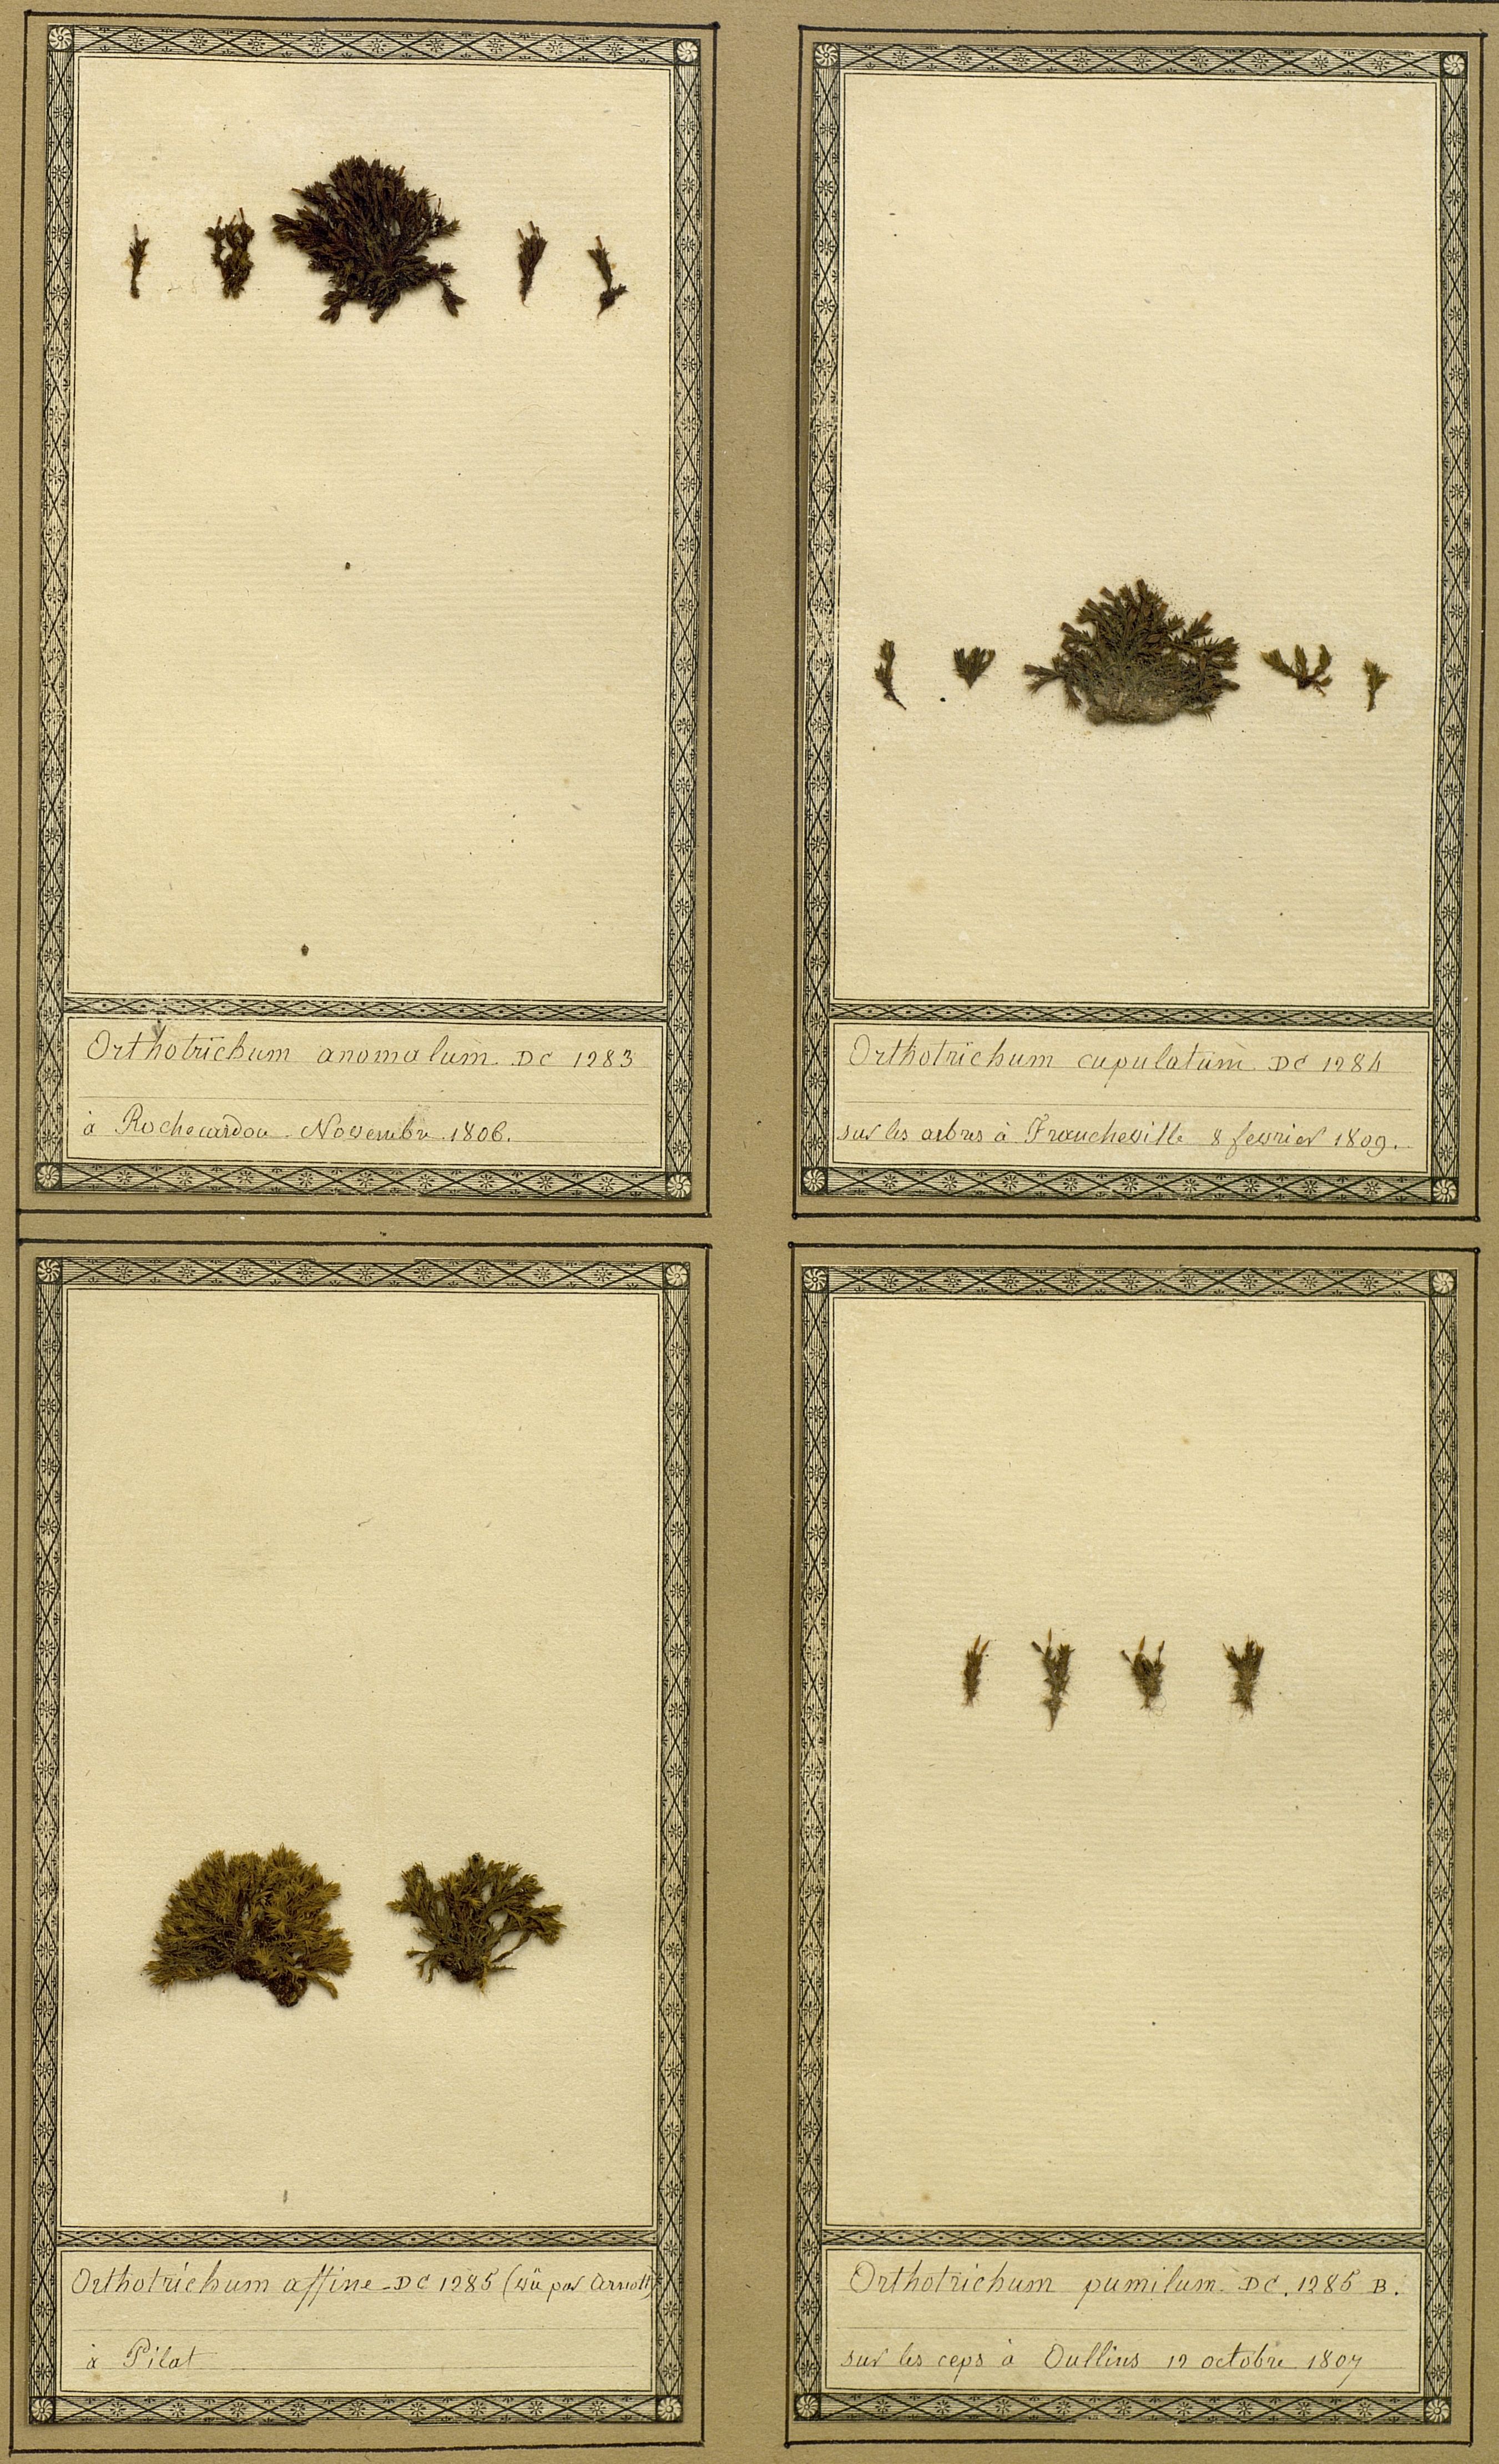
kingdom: Plantae
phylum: Bryophyta
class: Bryopsida
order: Orthotrichales
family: Orthotrichaceae
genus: Orthotrichum
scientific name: Orthotrichum pumilum
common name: Dwarf bristle moss
